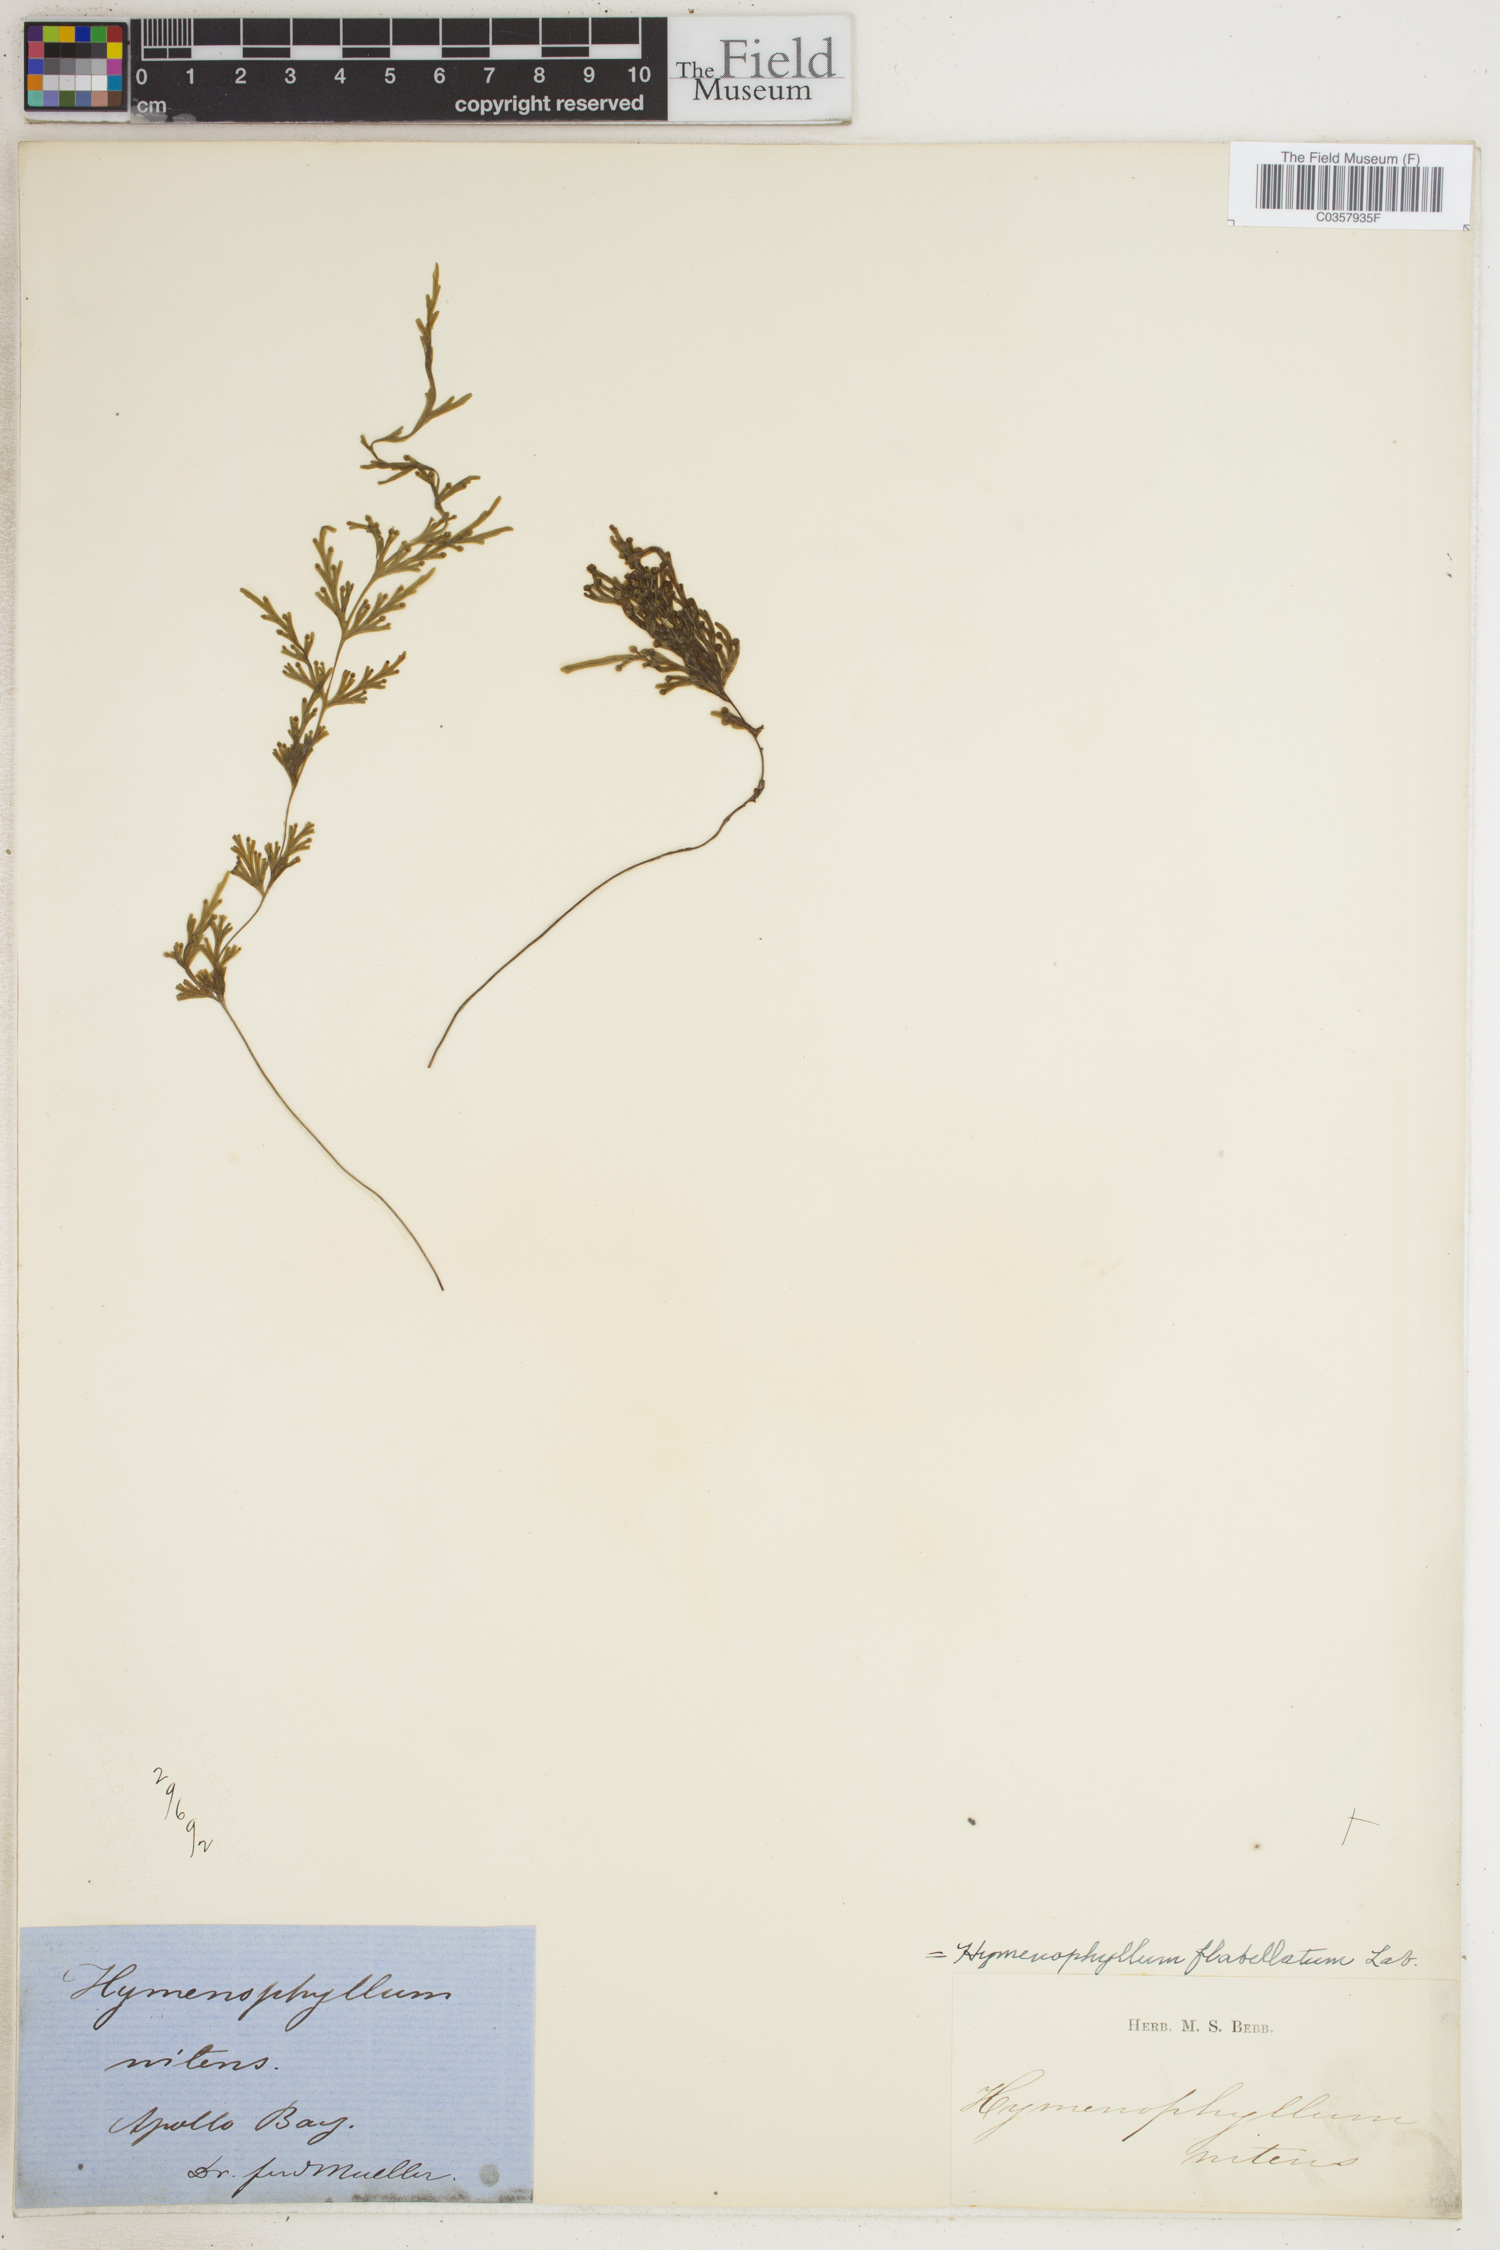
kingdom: Plantae
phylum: Tracheophyta
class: Polypodiopsida
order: Hymenophyllales
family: Hymenophyllaceae
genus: Hymenophyllum
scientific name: Hymenophyllum flabellatum
